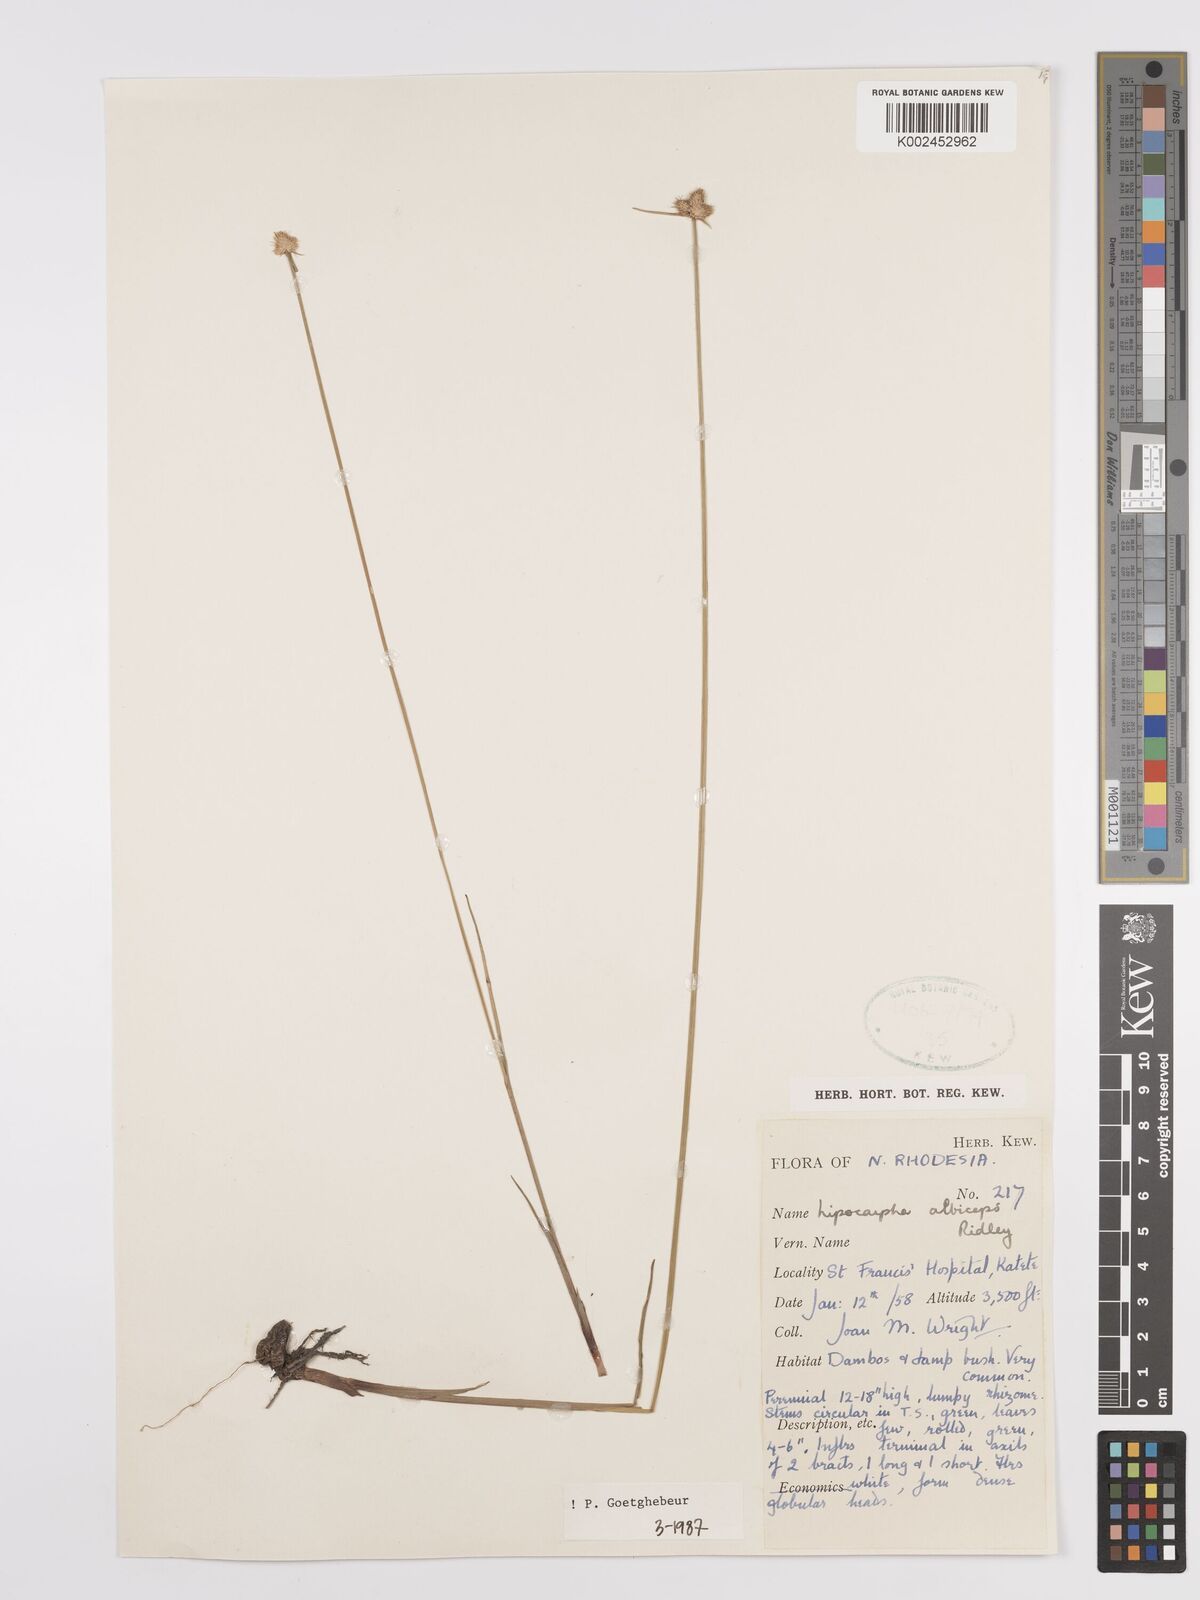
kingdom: Plantae
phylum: Tracheophyta
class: Liliopsida
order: Poales
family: Cyperaceae
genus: Cyperus
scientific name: Cyperus albiceps
